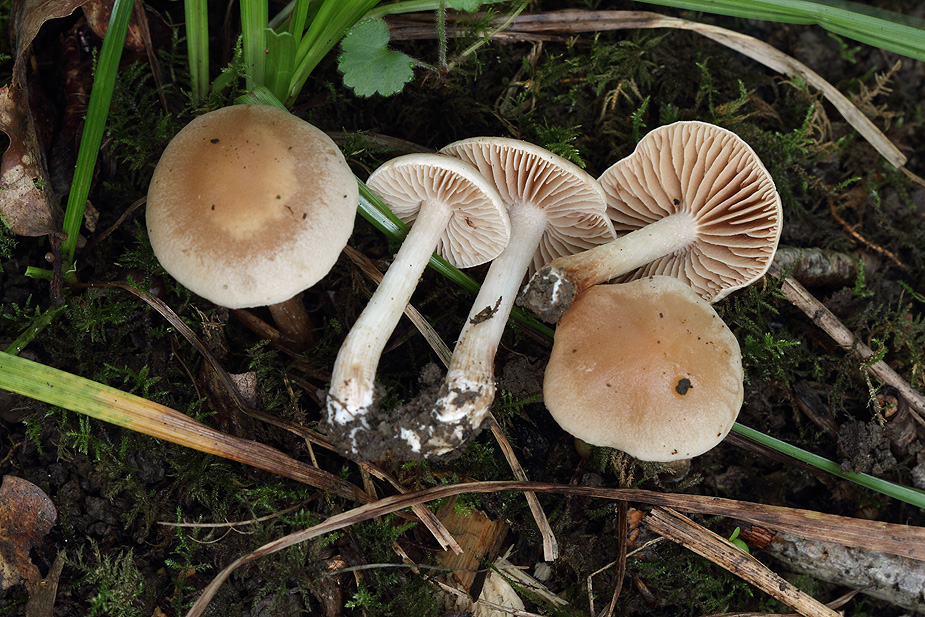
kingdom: Fungi
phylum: Basidiomycota
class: Agaricomycetes
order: Agaricales
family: Hymenogastraceae
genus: Hebeloma
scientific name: Hebeloma sacchariolens
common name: sødtduftende tåreblad
